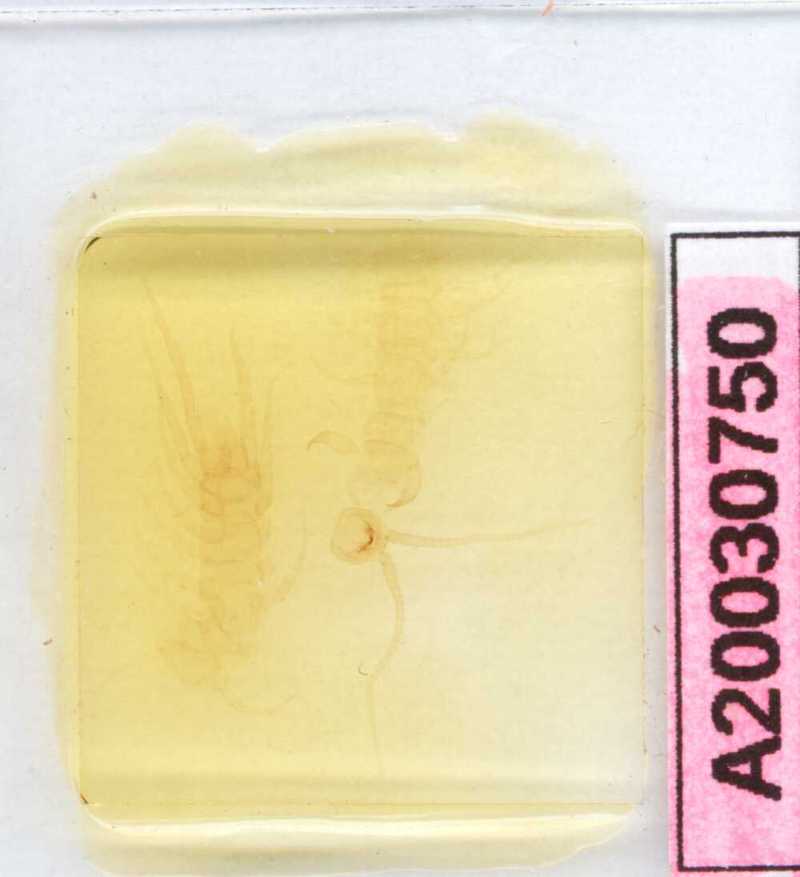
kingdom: Animalia
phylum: Arthropoda
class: Chilopoda
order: Lithobiomorpha
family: Lithobiidae
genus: Lithobius
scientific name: Lithobius lusitanus
